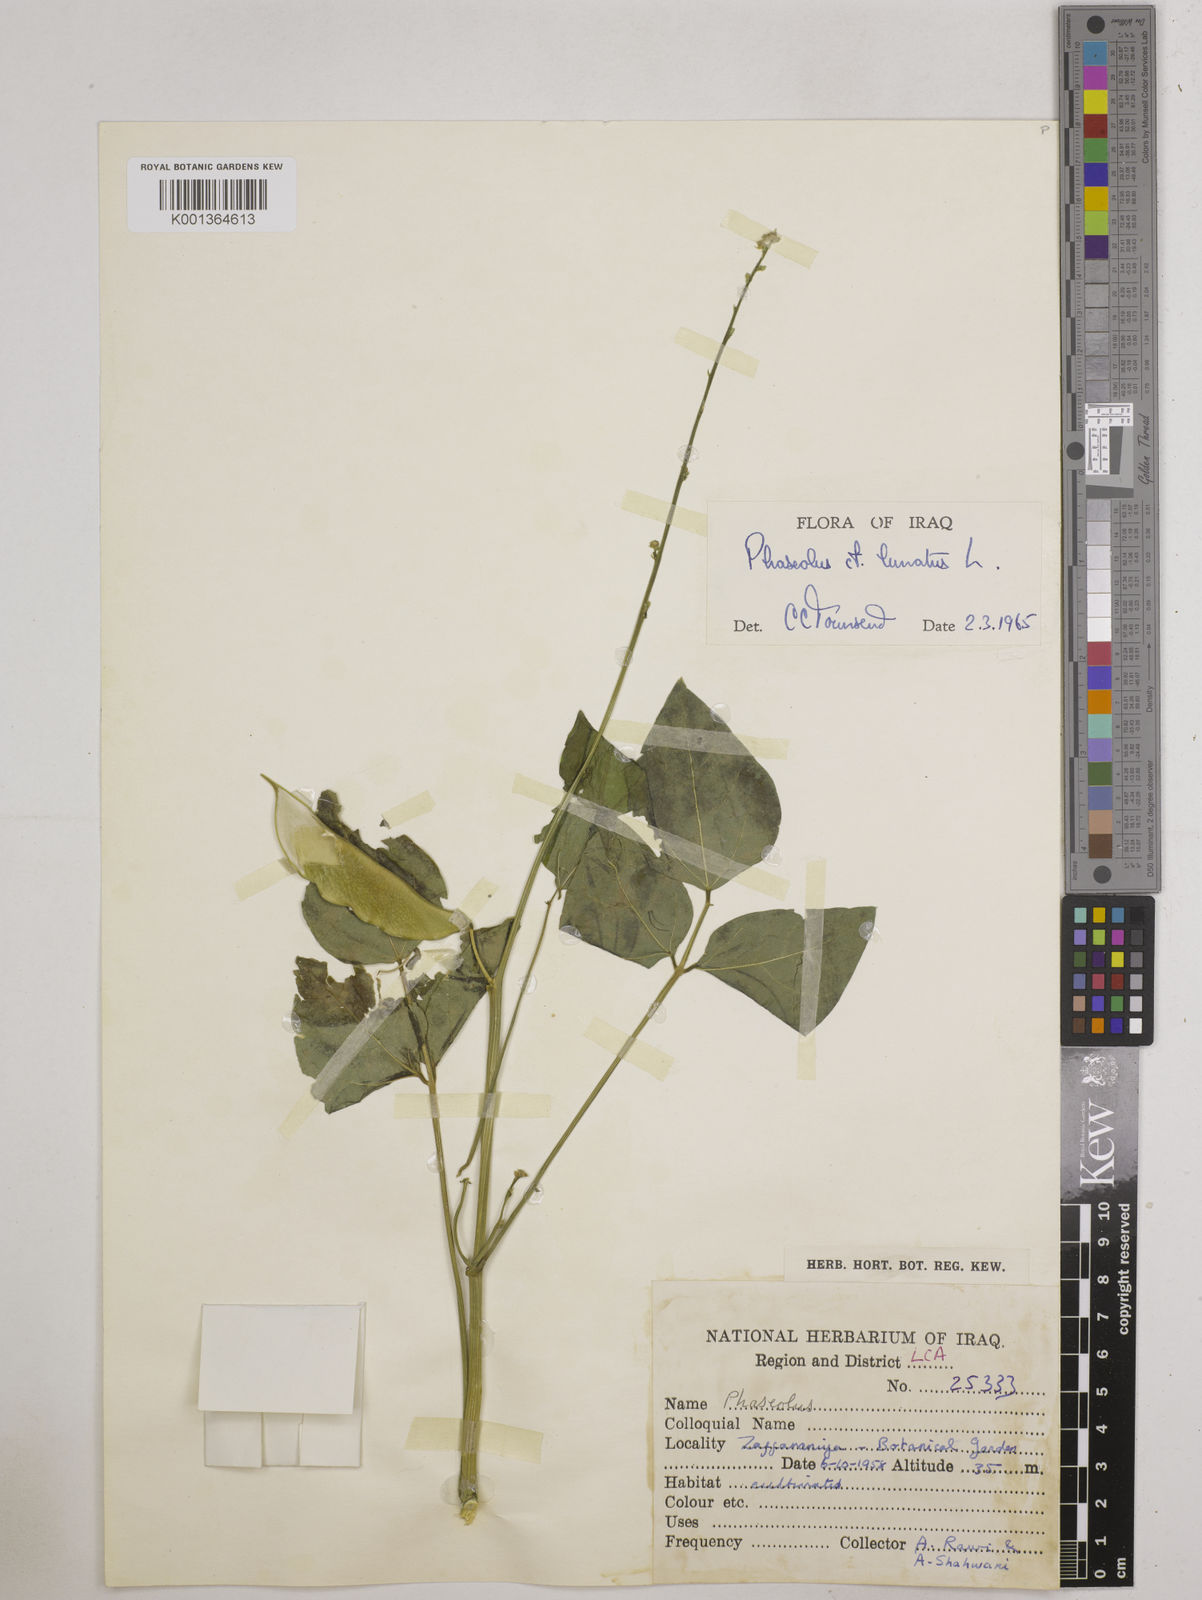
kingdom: Plantae
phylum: Tracheophyta
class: Magnoliopsida
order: Fabales
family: Fabaceae
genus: Phaseolus
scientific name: Phaseolus lunatus
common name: Sieva bean
